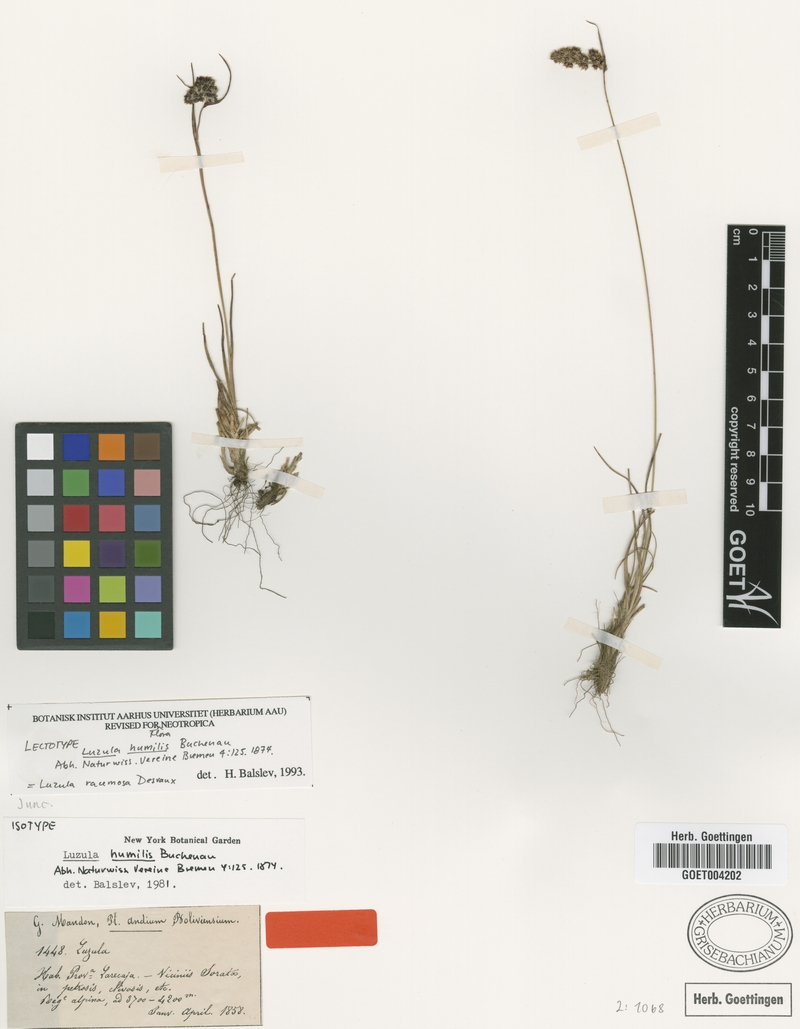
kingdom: Plantae
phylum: Tracheophyta
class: Liliopsida
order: Poales
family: Juncaceae
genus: Luzula
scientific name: Luzula racemosa
